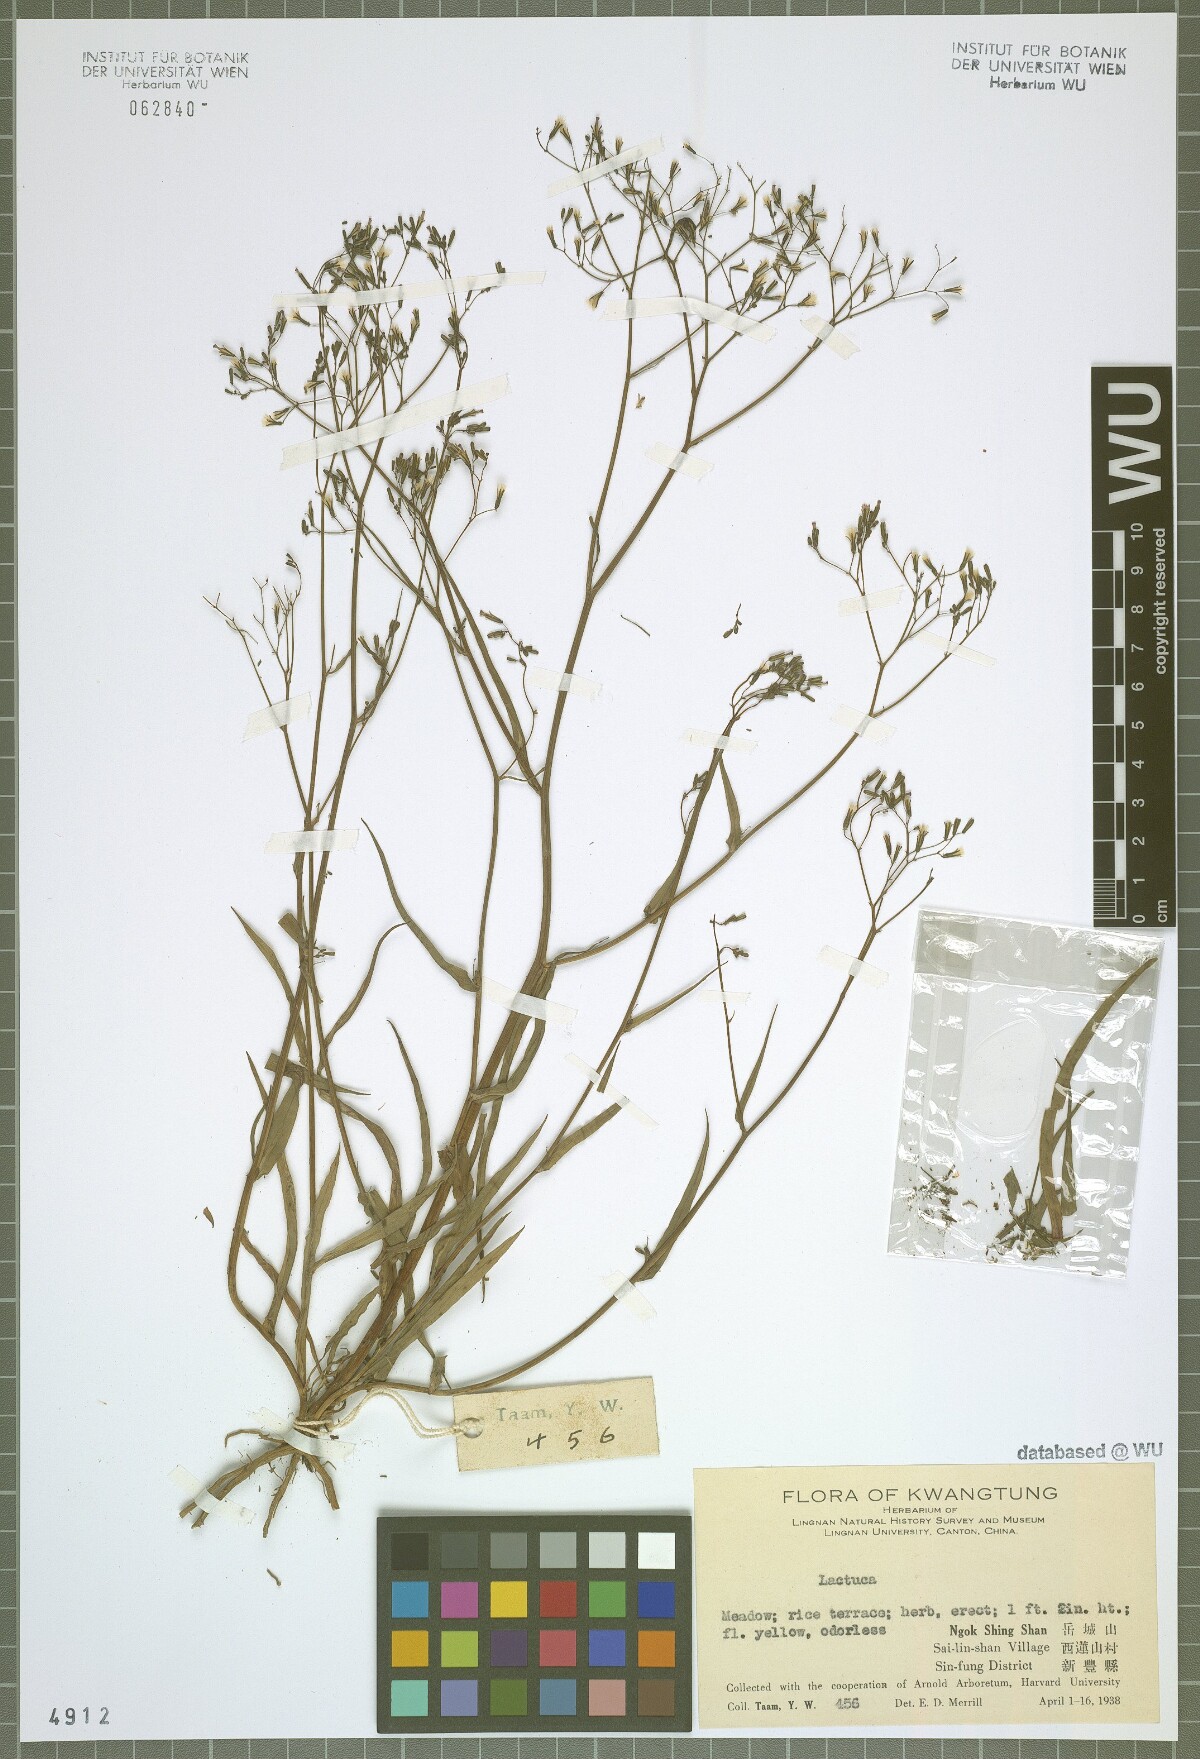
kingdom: Plantae
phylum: Tracheophyta
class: Magnoliopsida
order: Asterales
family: Asteraceae
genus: Lactuca
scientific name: Lactuca
